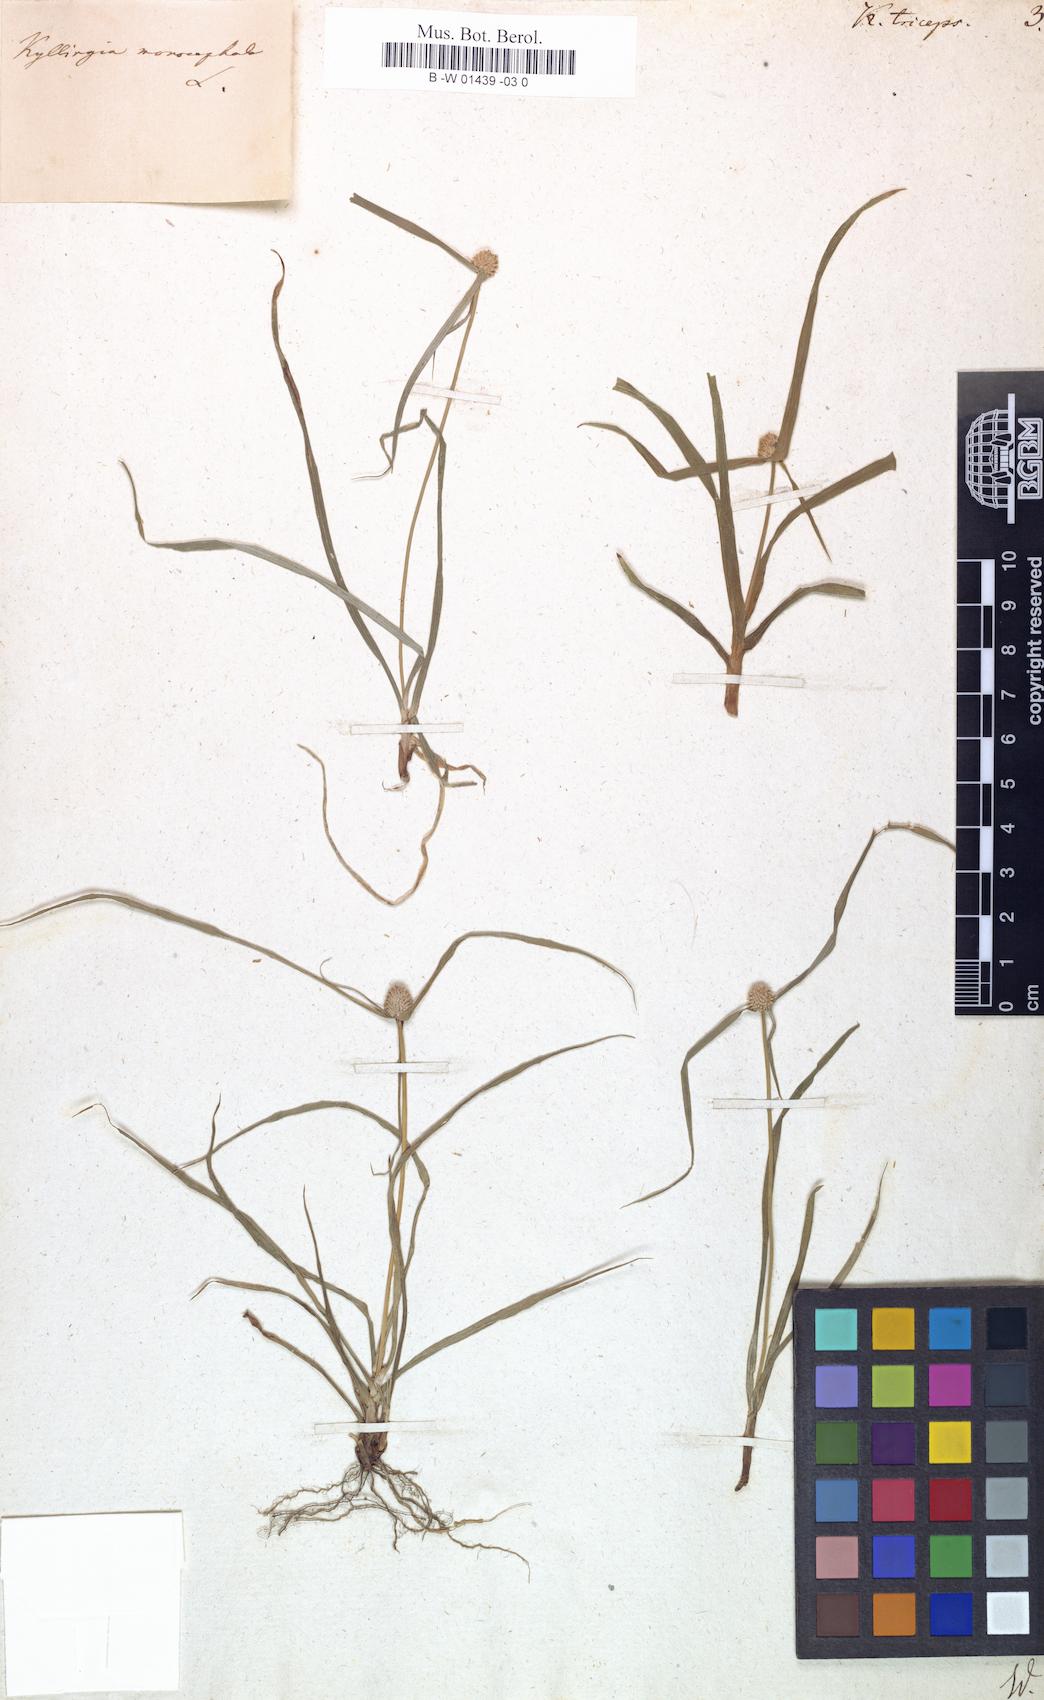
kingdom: Plantae
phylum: Tracheophyta
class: Liliopsida
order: Poales
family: Cyperaceae
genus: Cyperus
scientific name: Cyperus Kyllinga triceps
